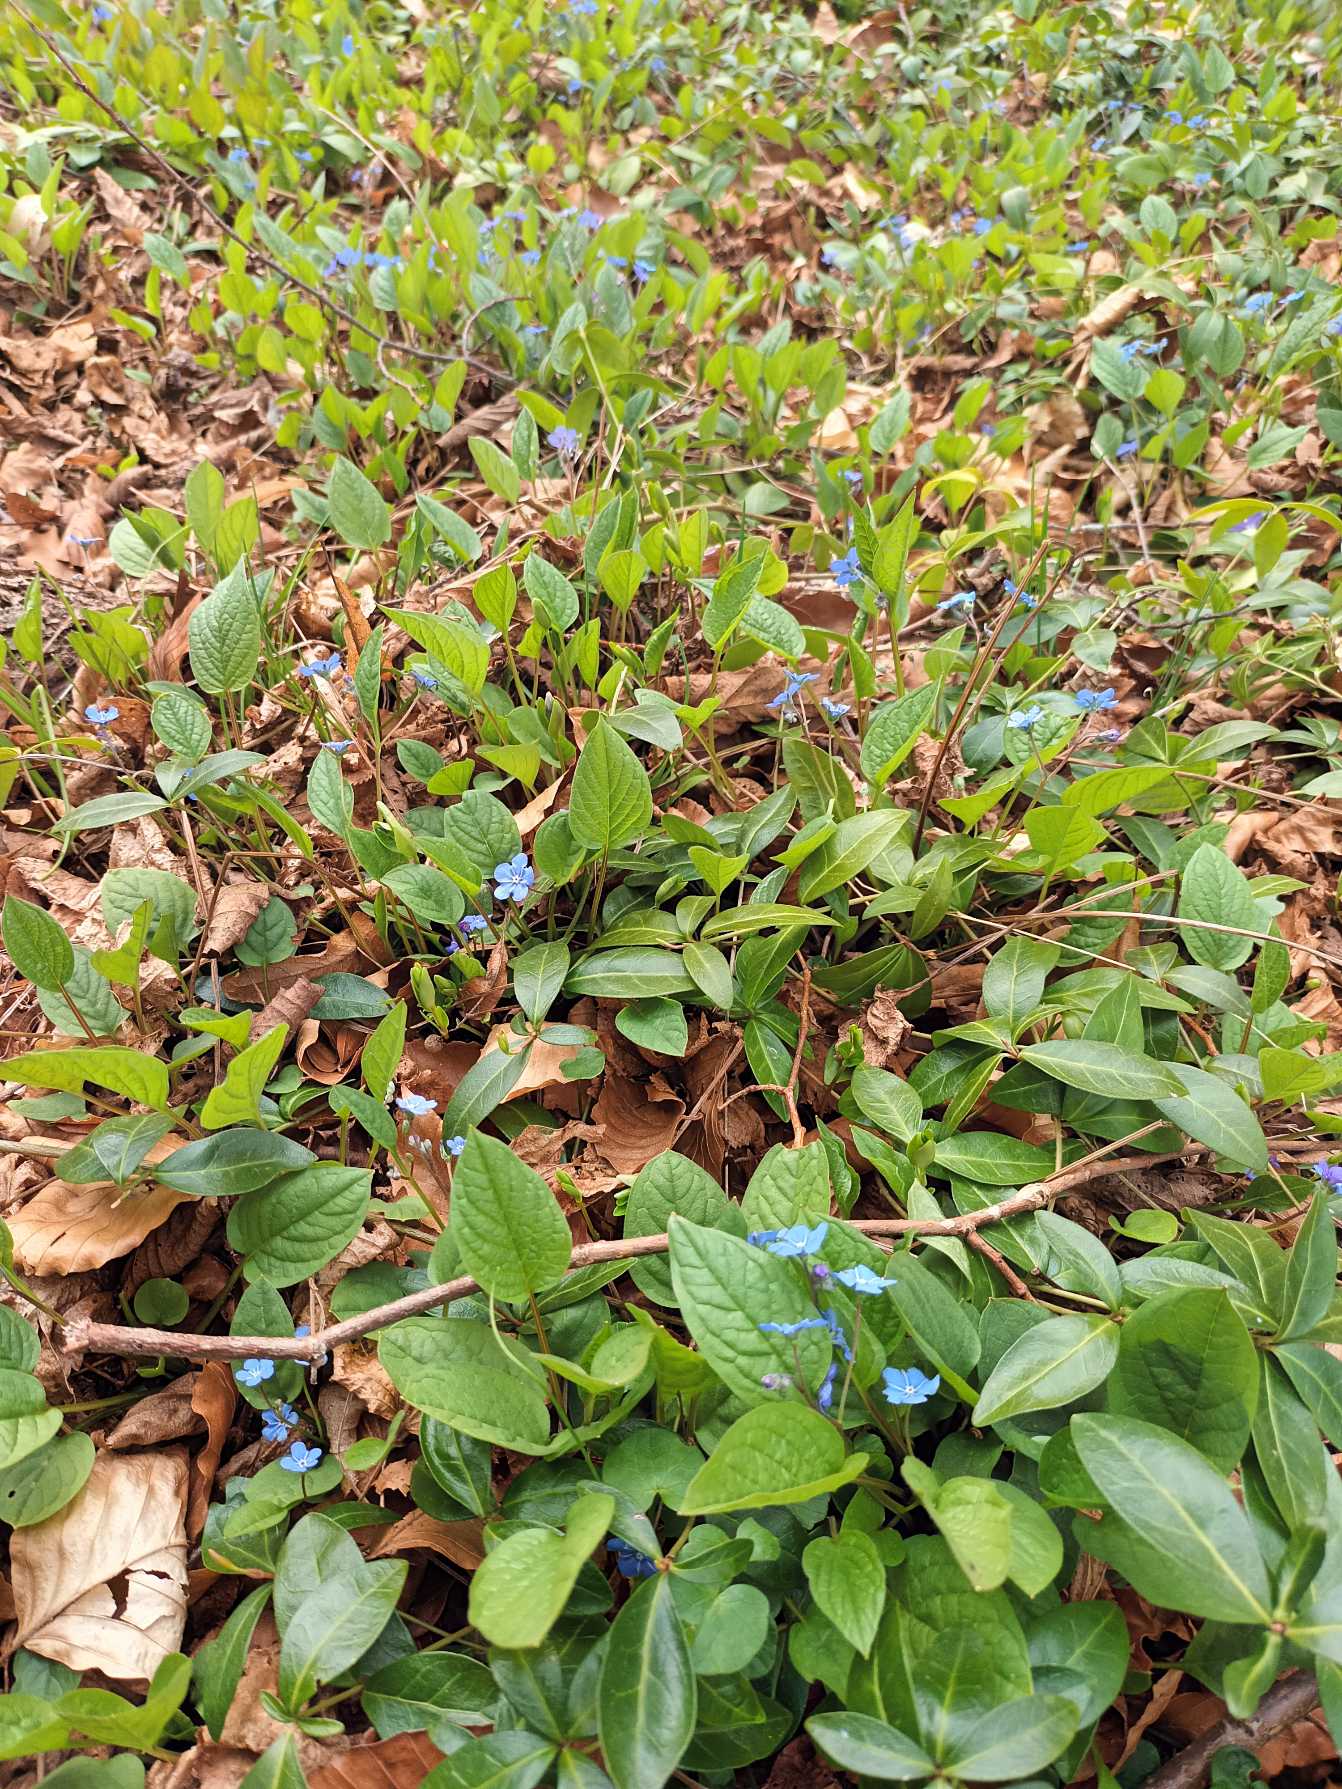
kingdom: Plantae
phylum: Tracheophyta
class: Magnoliopsida
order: Boraginales
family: Boraginaceae
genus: Omphalodes
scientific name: Omphalodes verna
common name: Vår-kærminde
